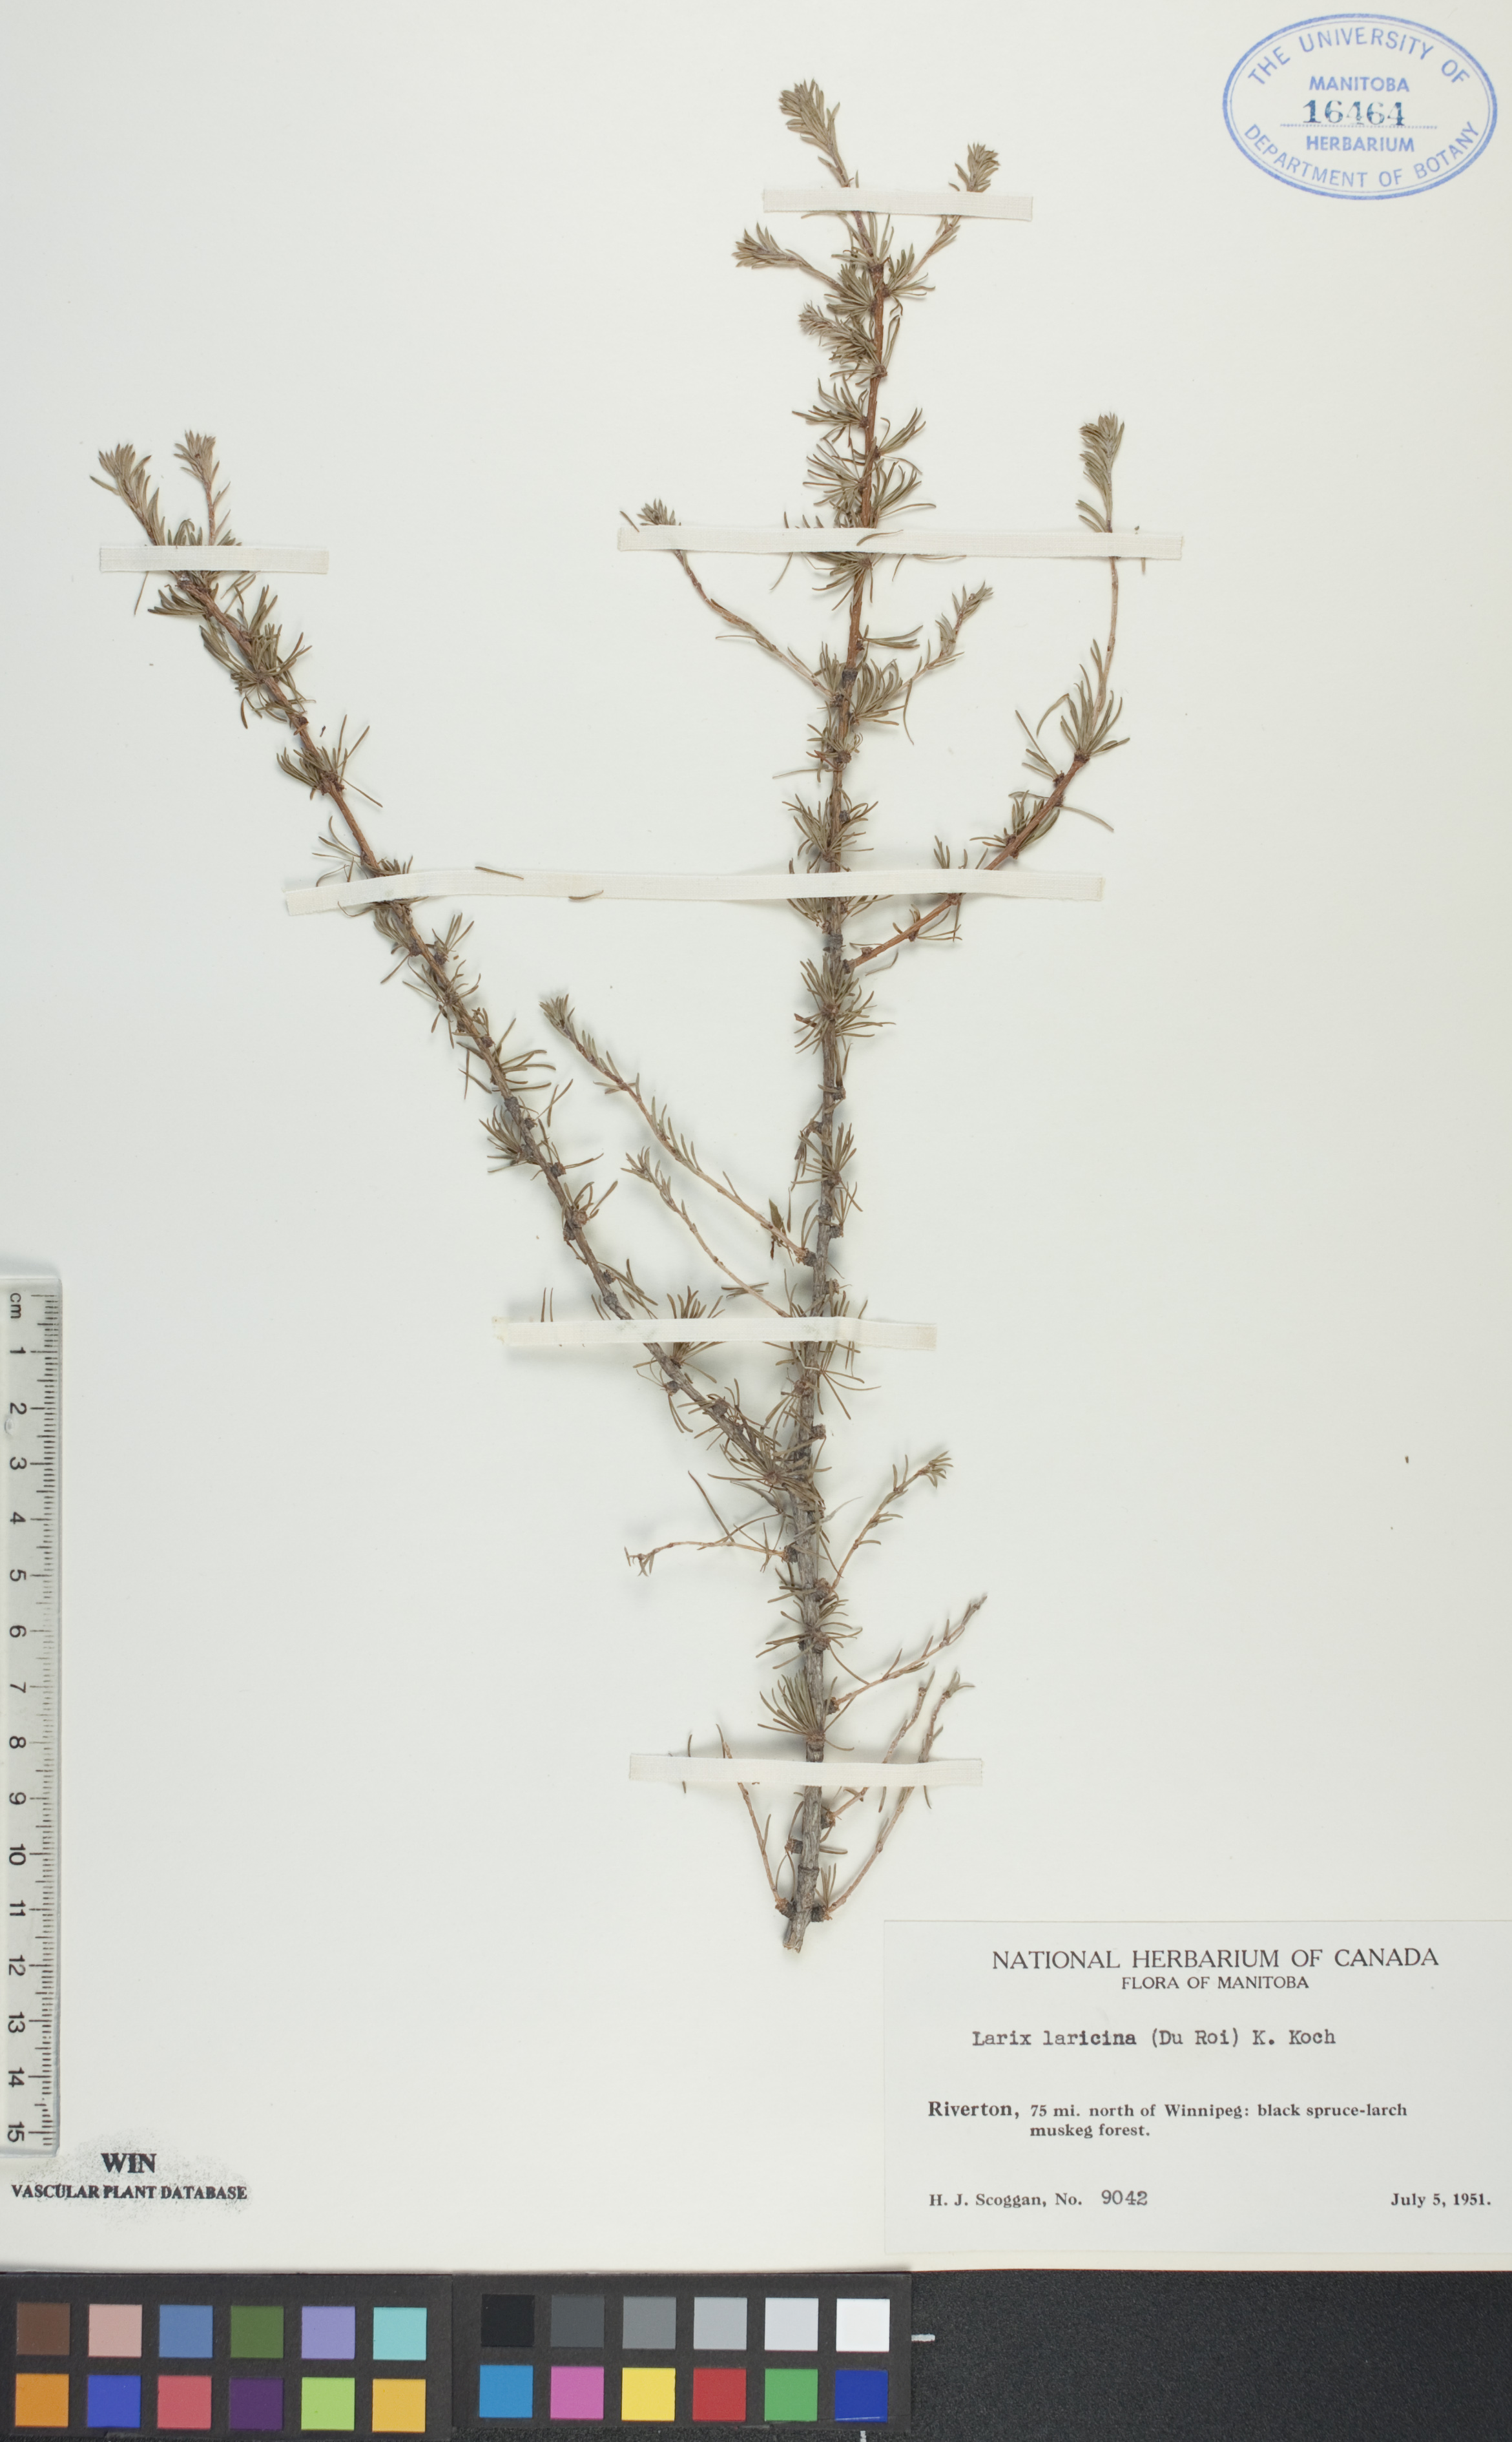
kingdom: Plantae
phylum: Tracheophyta
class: Pinopsida
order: Pinales
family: Pinaceae
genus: Larix
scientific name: Larix laricina
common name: American larch
